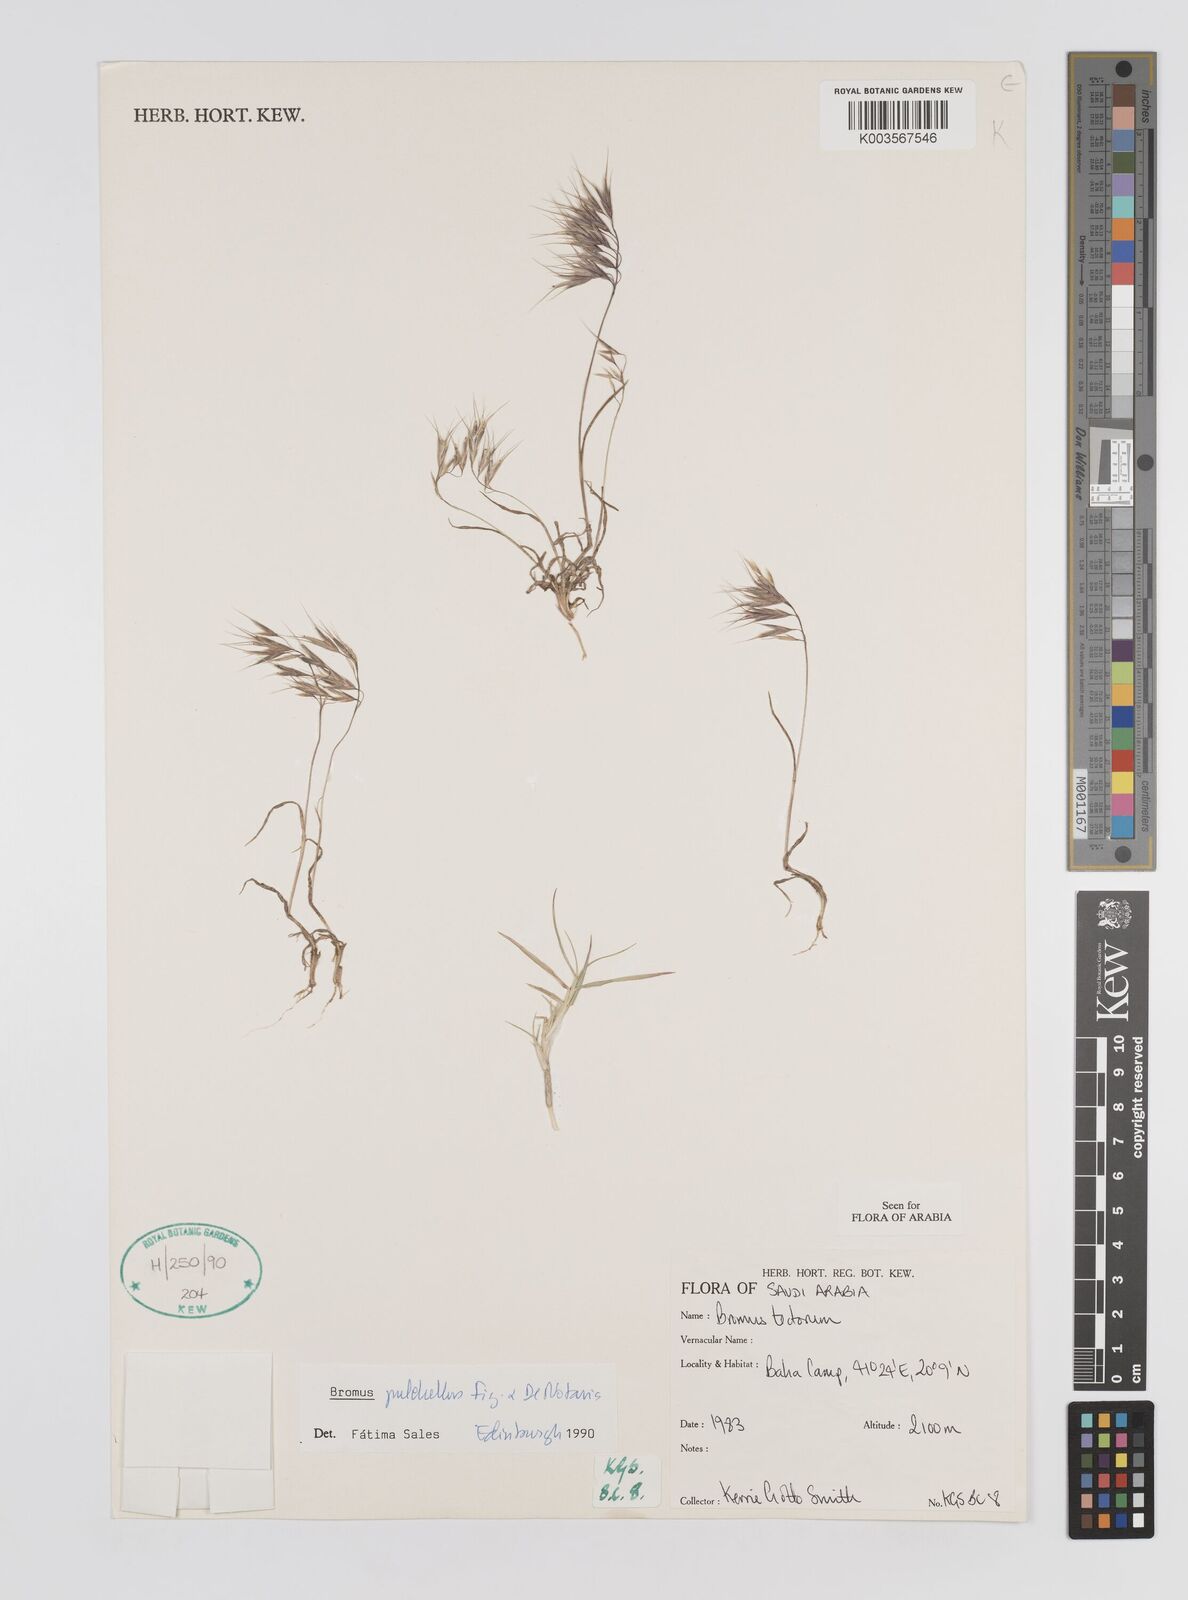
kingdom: Plantae
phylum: Tracheophyta
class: Liliopsida
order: Poales
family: Poaceae
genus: Bromus
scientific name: Bromus pectinatus
